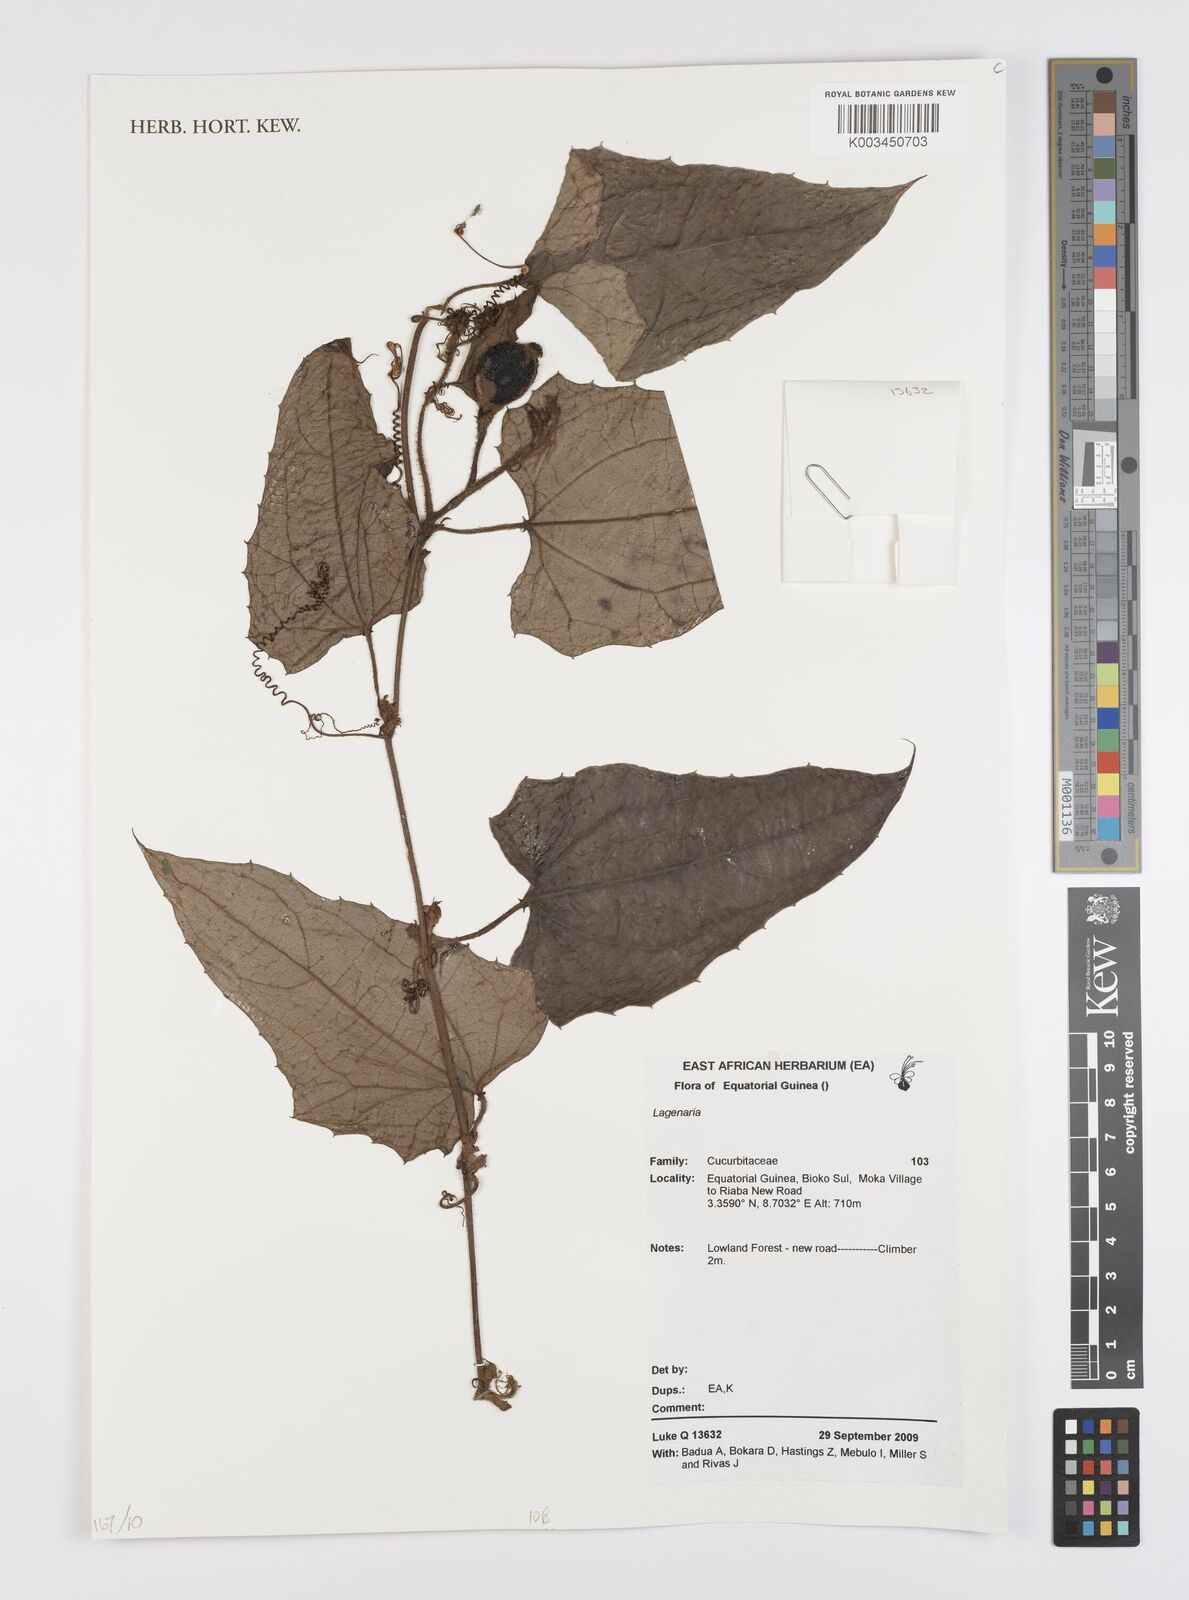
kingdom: Plantae
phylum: Tracheophyta
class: Magnoliopsida
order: Cucurbitales
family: Cucurbitaceae
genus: Lagenaria
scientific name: Lagenaria rufa
